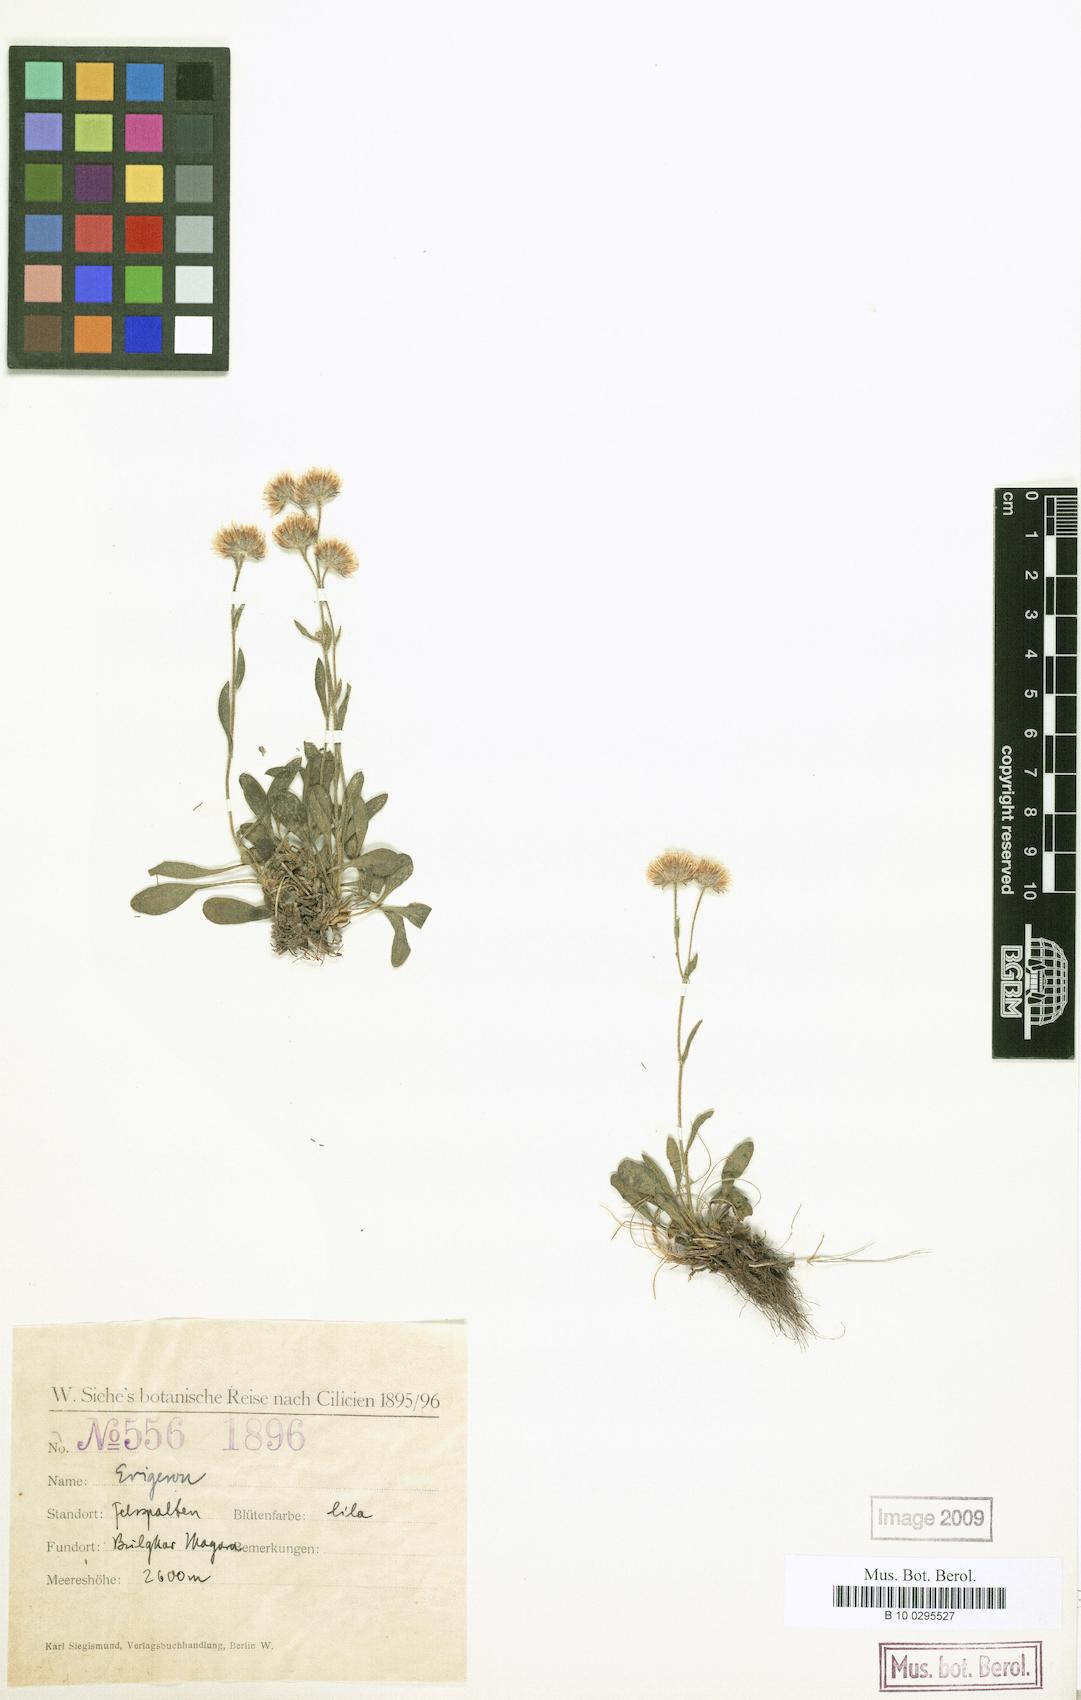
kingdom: Plantae
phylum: Tracheophyta
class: Magnoliopsida
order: Asterales
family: Asteraceae
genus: Erigeron
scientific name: Erigeron cilicicus
